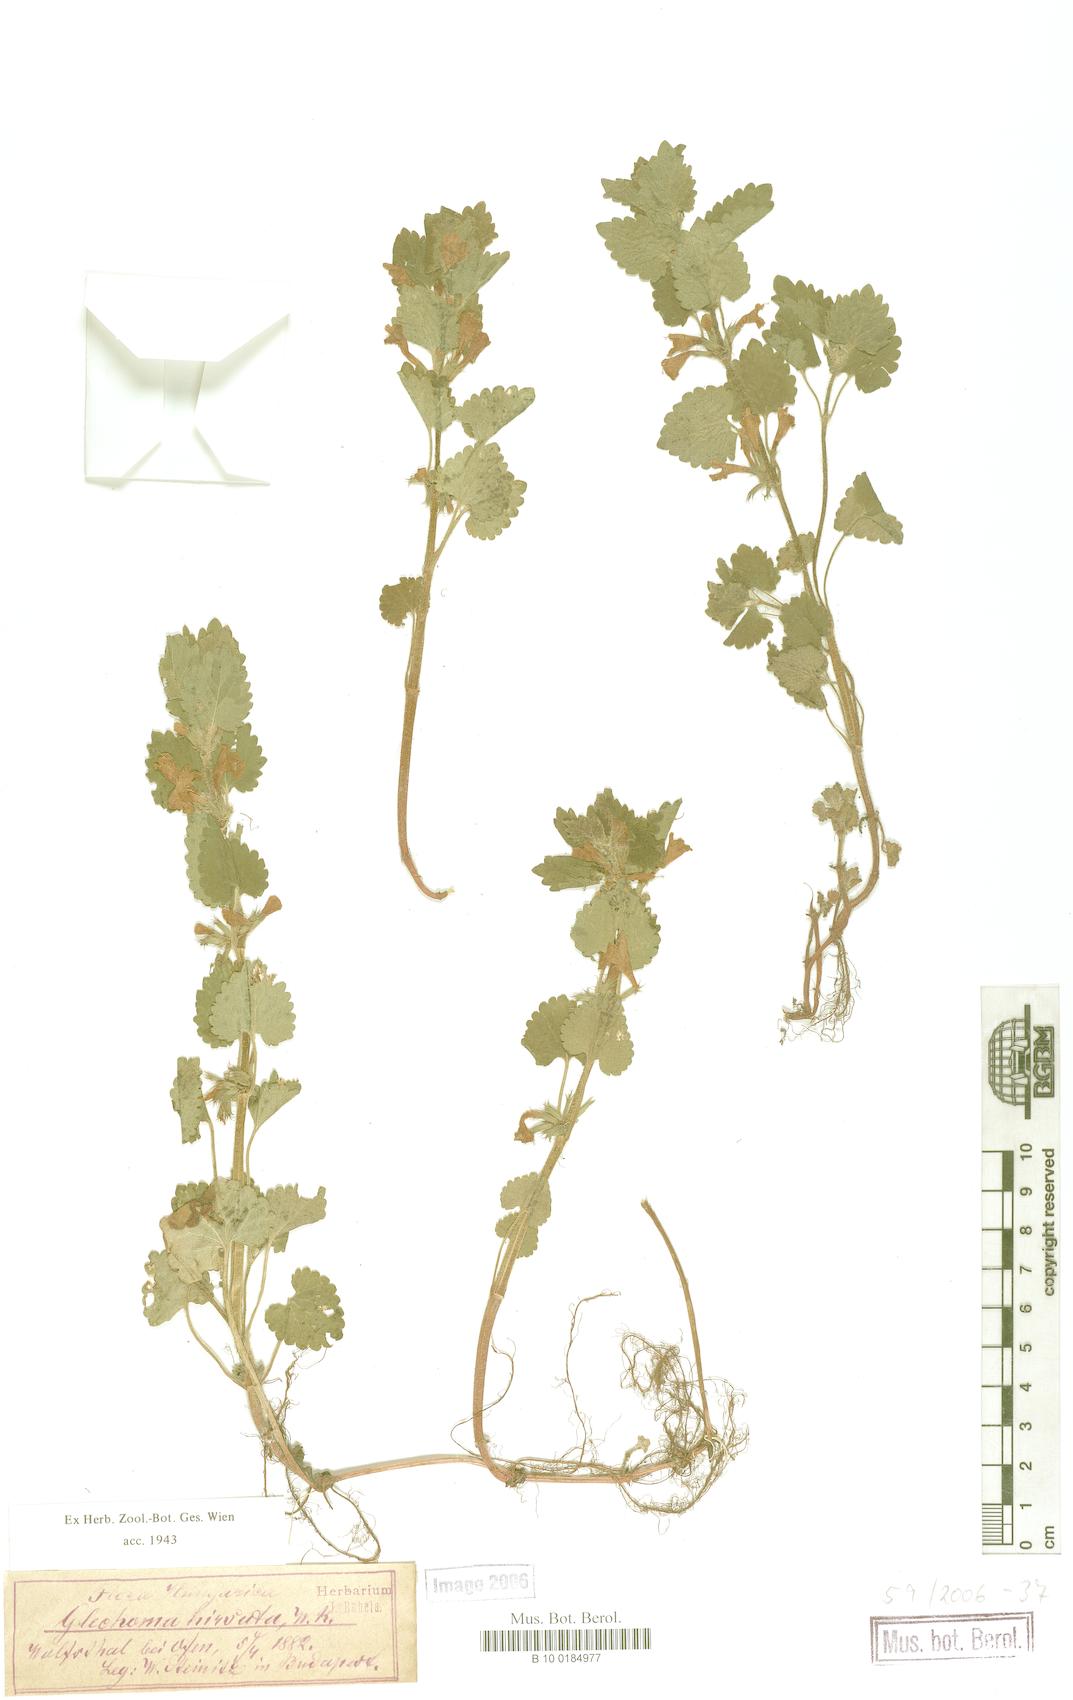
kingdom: Plantae
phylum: Tracheophyta
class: Magnoliopsida
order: Lamiales
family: Lamiaceae
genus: Glechoma
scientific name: Glechoma hirsuta
